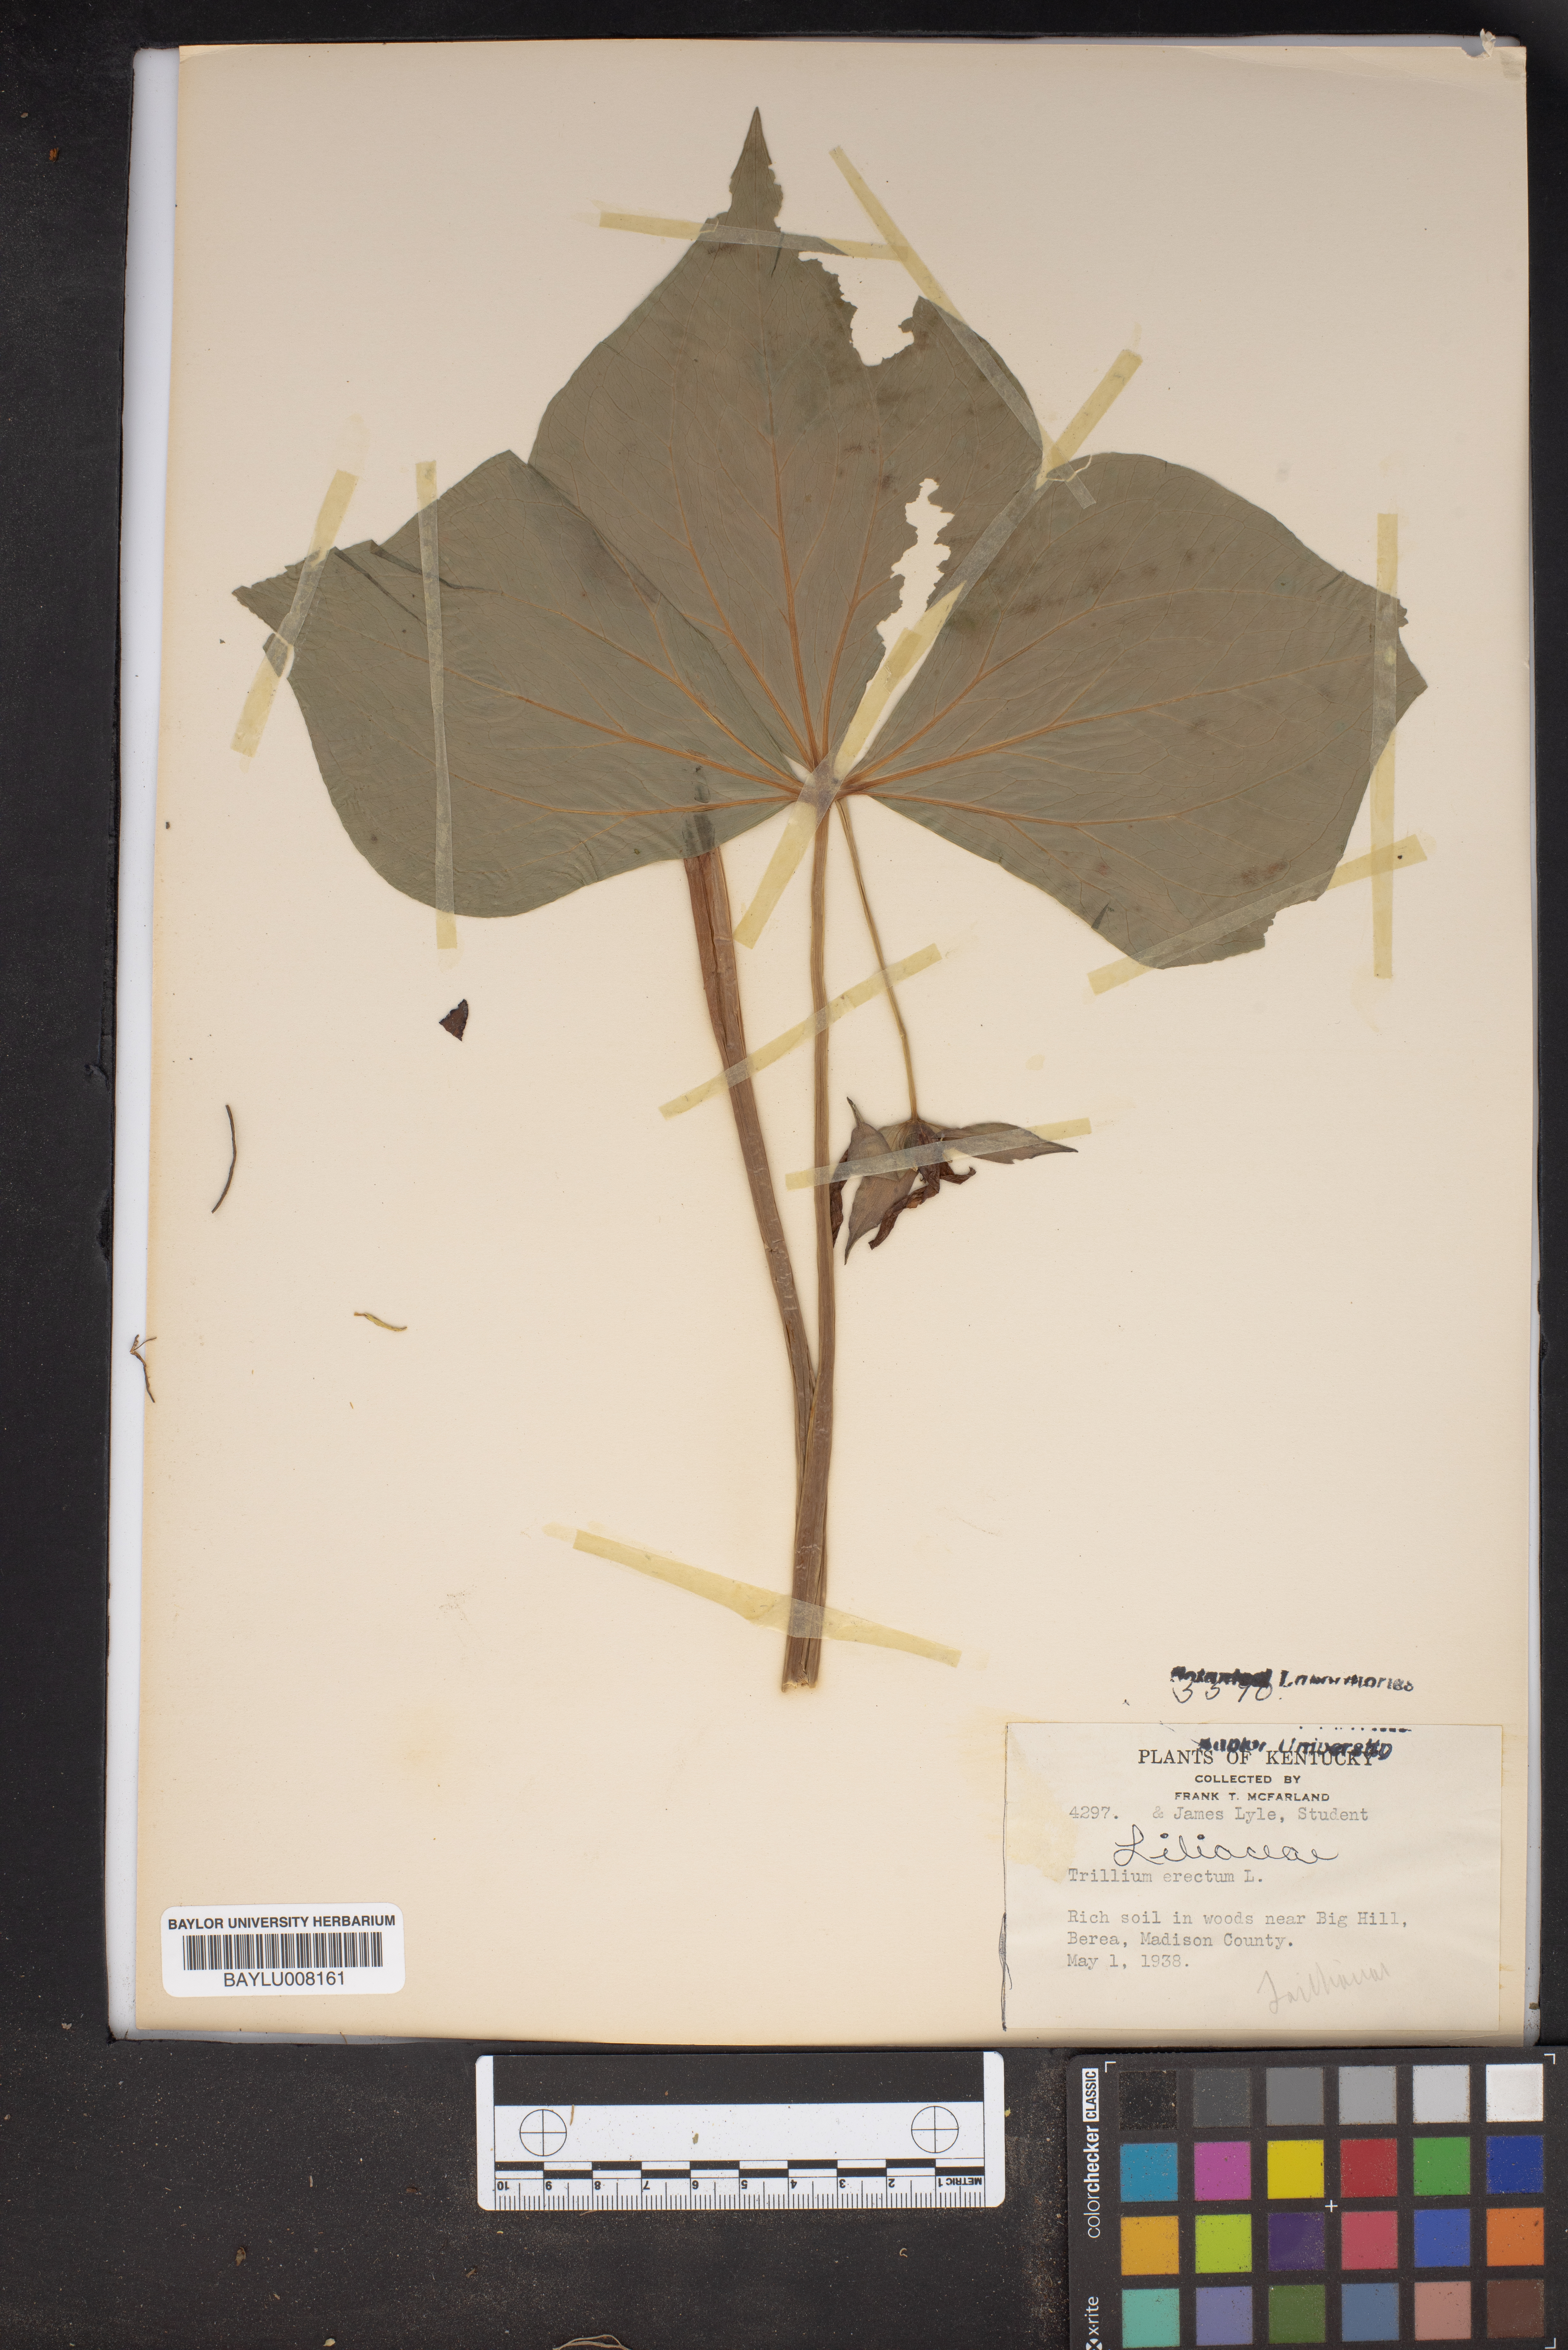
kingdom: Plantae
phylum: Tracheophyta
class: Liliopsida
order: Liliales
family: Melanthiaceae
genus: Trillium
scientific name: Trillium erectum
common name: Purple trillium
